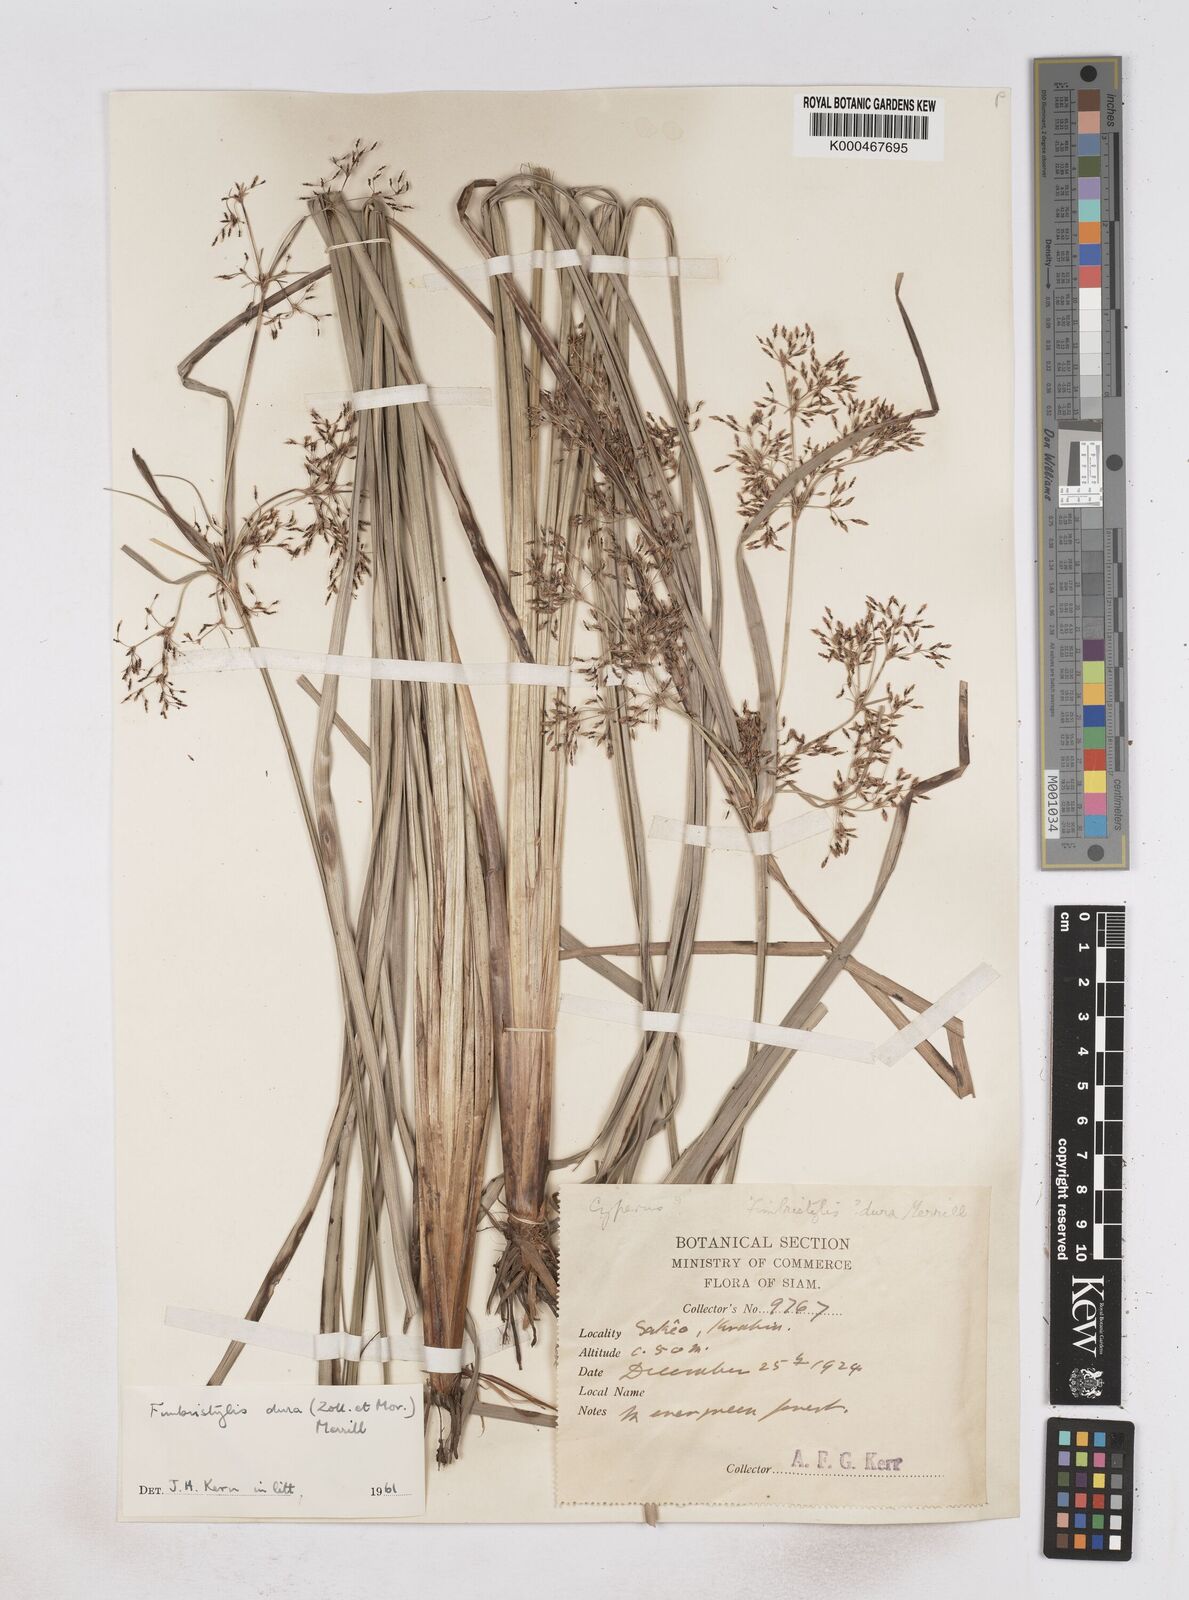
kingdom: Plantae
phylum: Tracheophyta
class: Liliopsida
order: Poales
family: Cyperaceae
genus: Fimbristylis
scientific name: Fimbristylis dura
